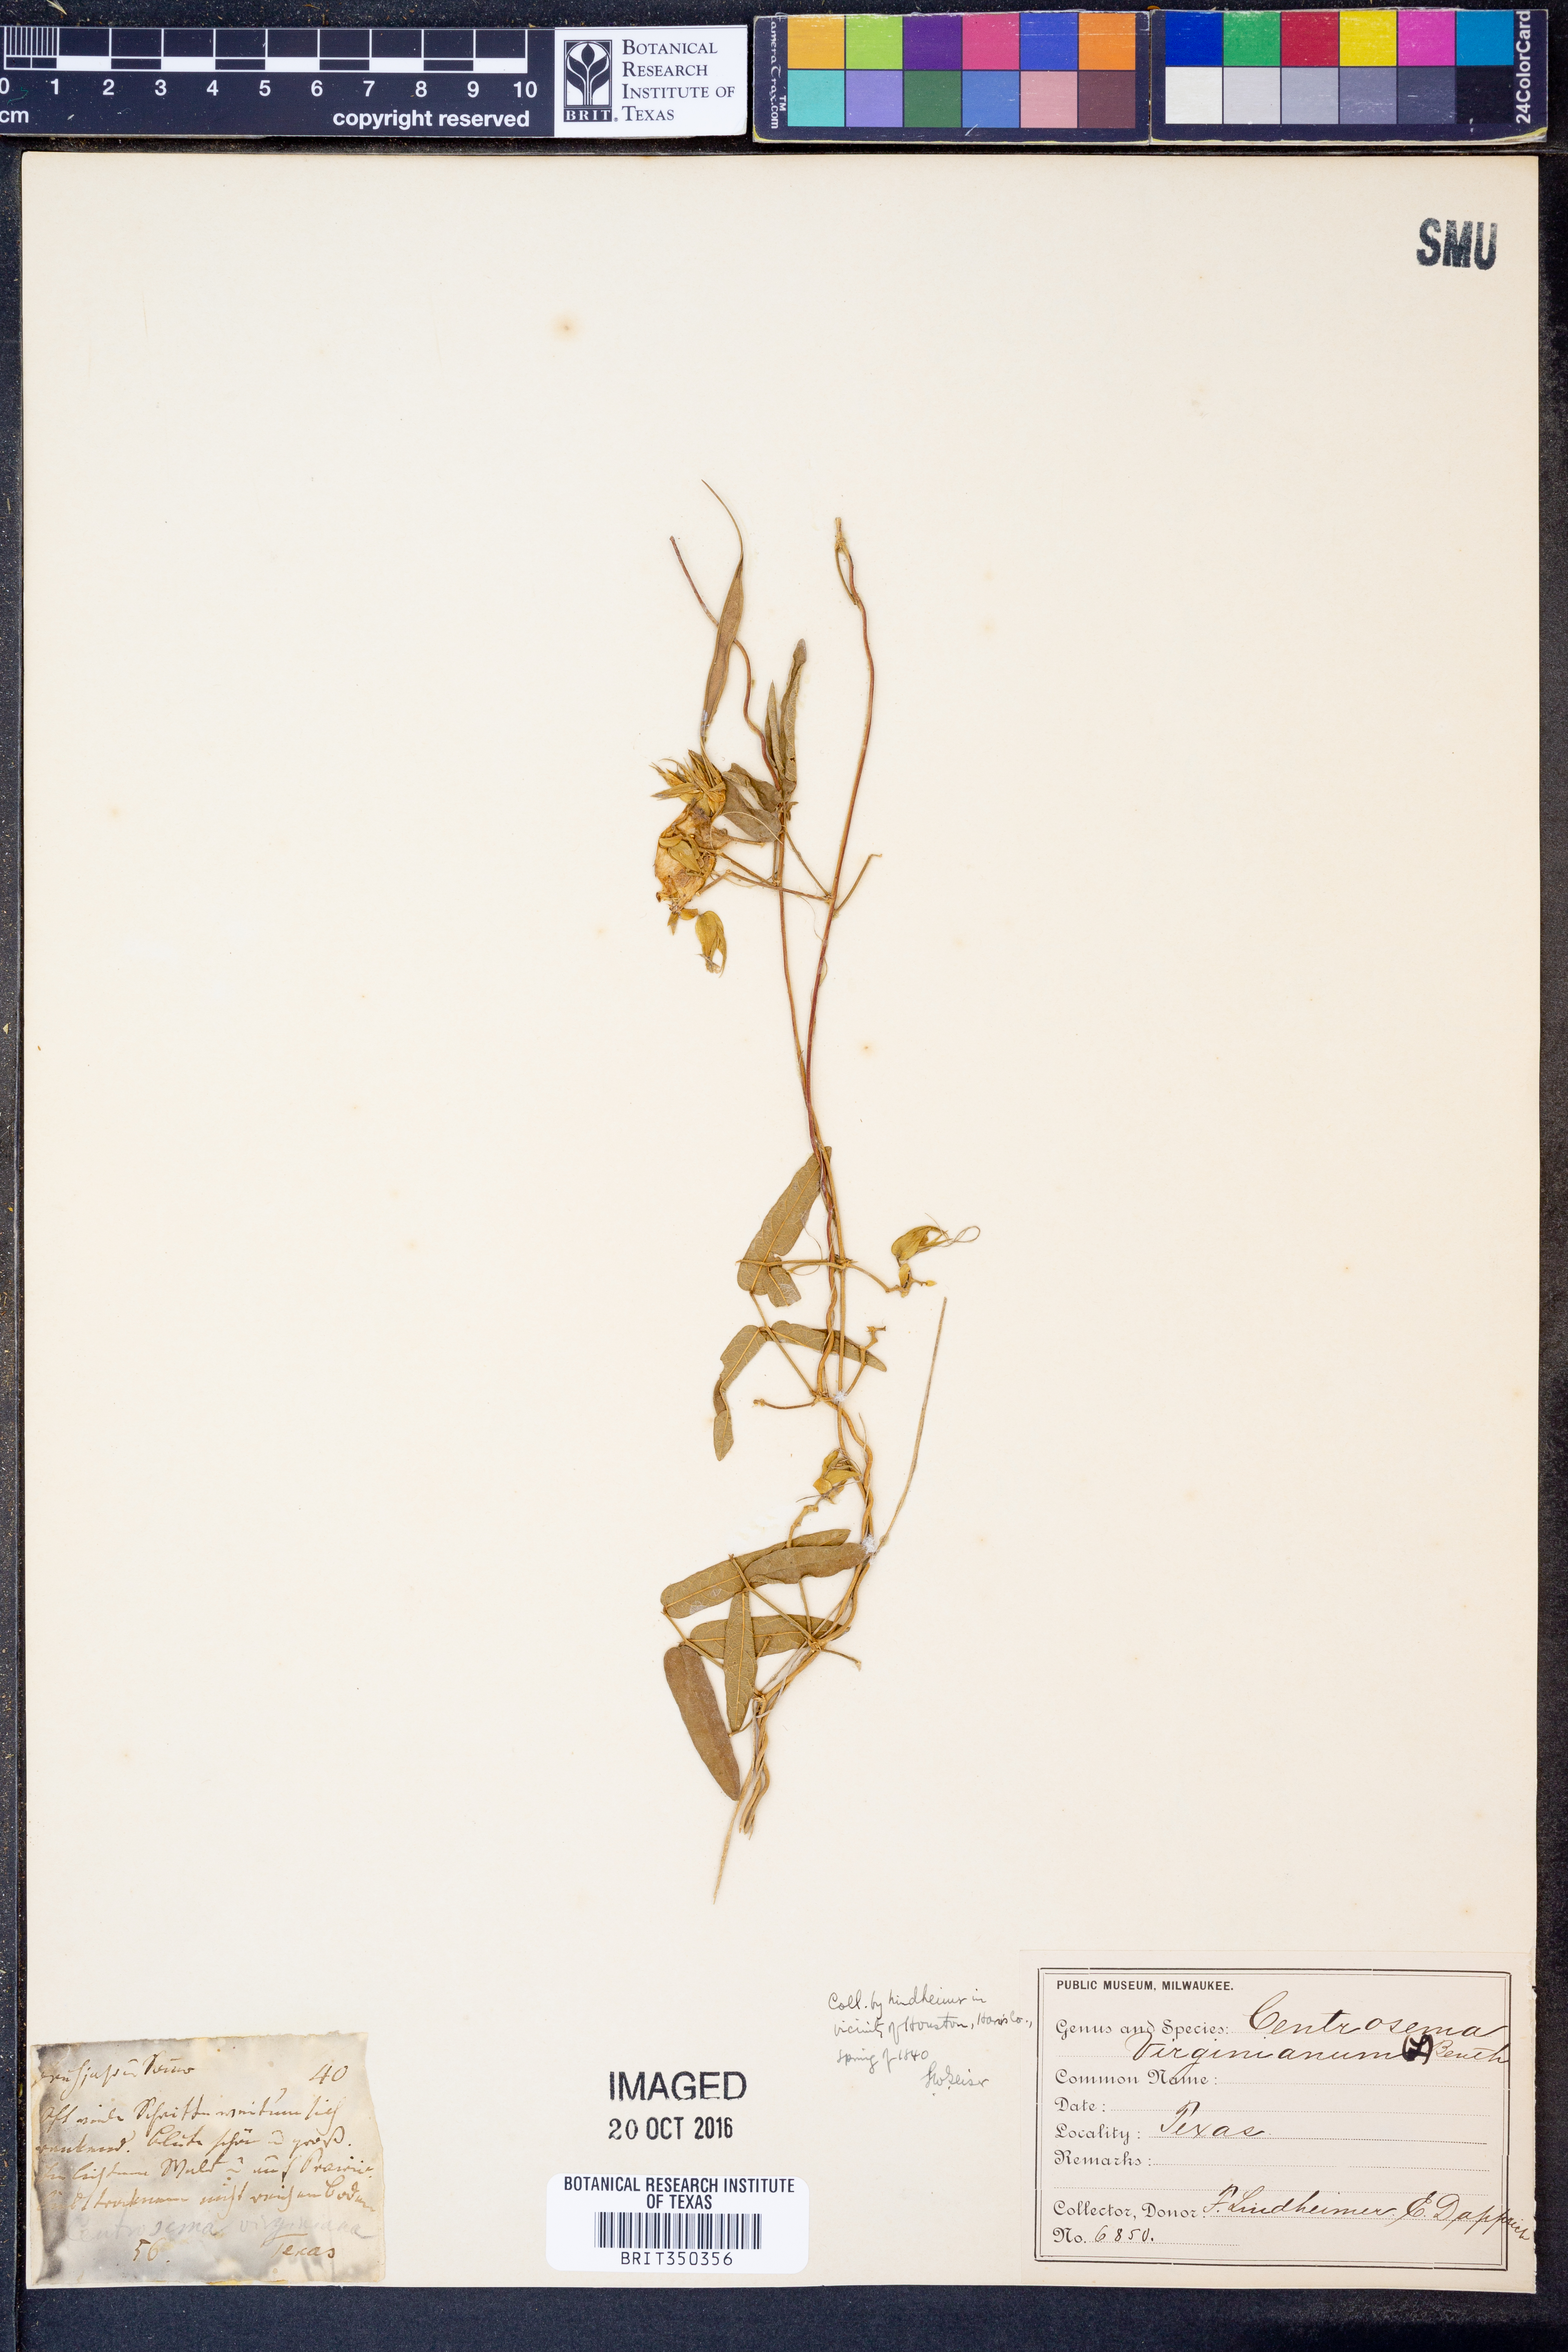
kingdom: Plantae
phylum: Tracheophyta
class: Magnoliopsida
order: Fabales
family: Fabaceae
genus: Centrosema
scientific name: Centrosema virginianum
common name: Butterfly-pea
